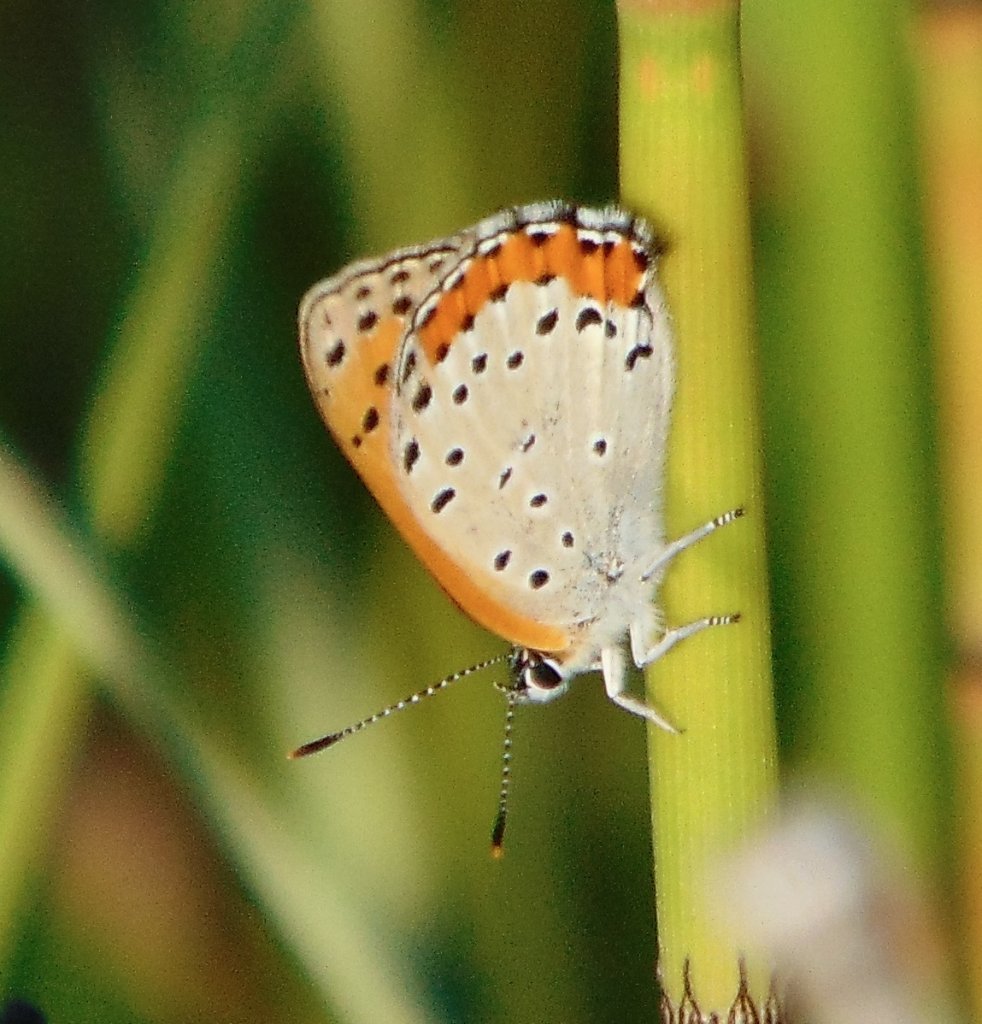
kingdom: Animalia
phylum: Arthropoda
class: Insecta
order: Lepidoptera
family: Sesiidae
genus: Sesia
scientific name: Sesia Lycaena hyllus
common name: Bronze Copper
